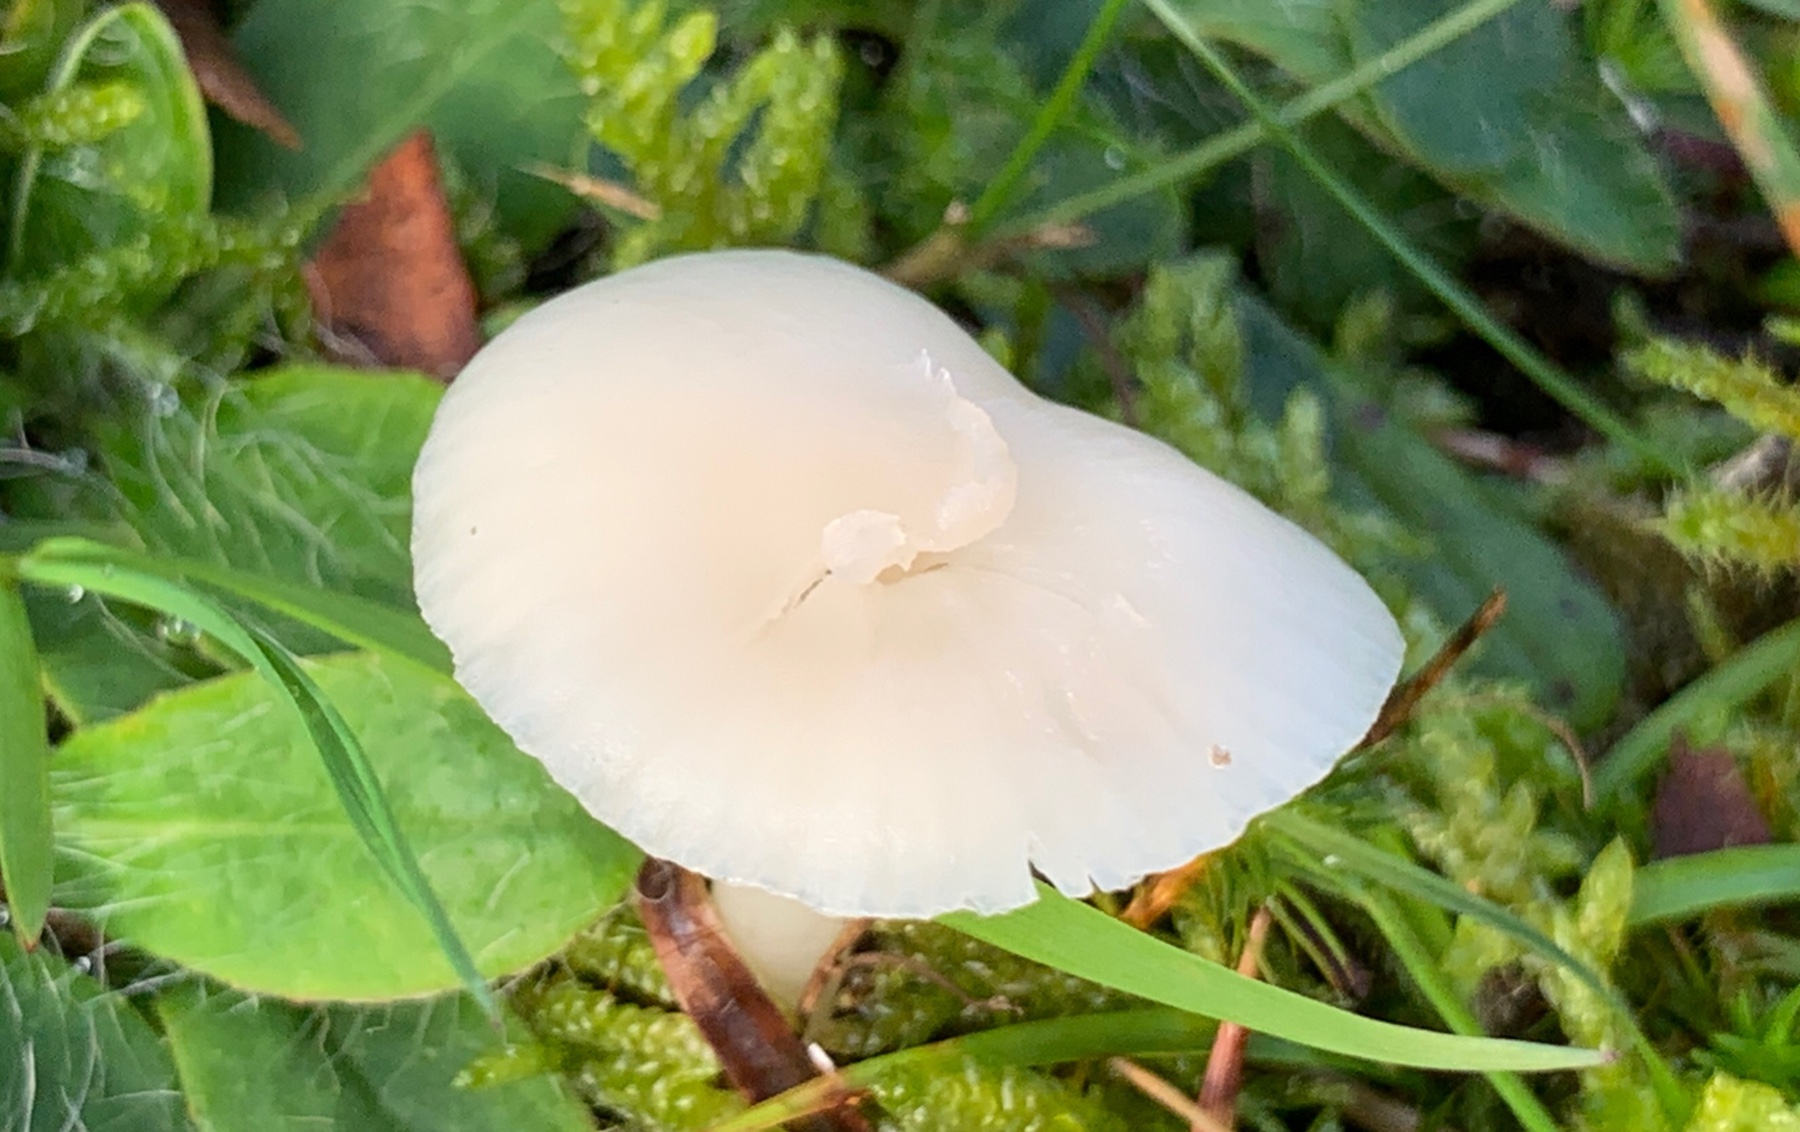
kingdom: Fungi
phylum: Basidiomycota
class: Agaricomycetes
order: Agaricales
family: Hygrophoraceae
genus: Cuphophyllus
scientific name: Cuphophyllus virgineus
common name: snehvid vokshat
